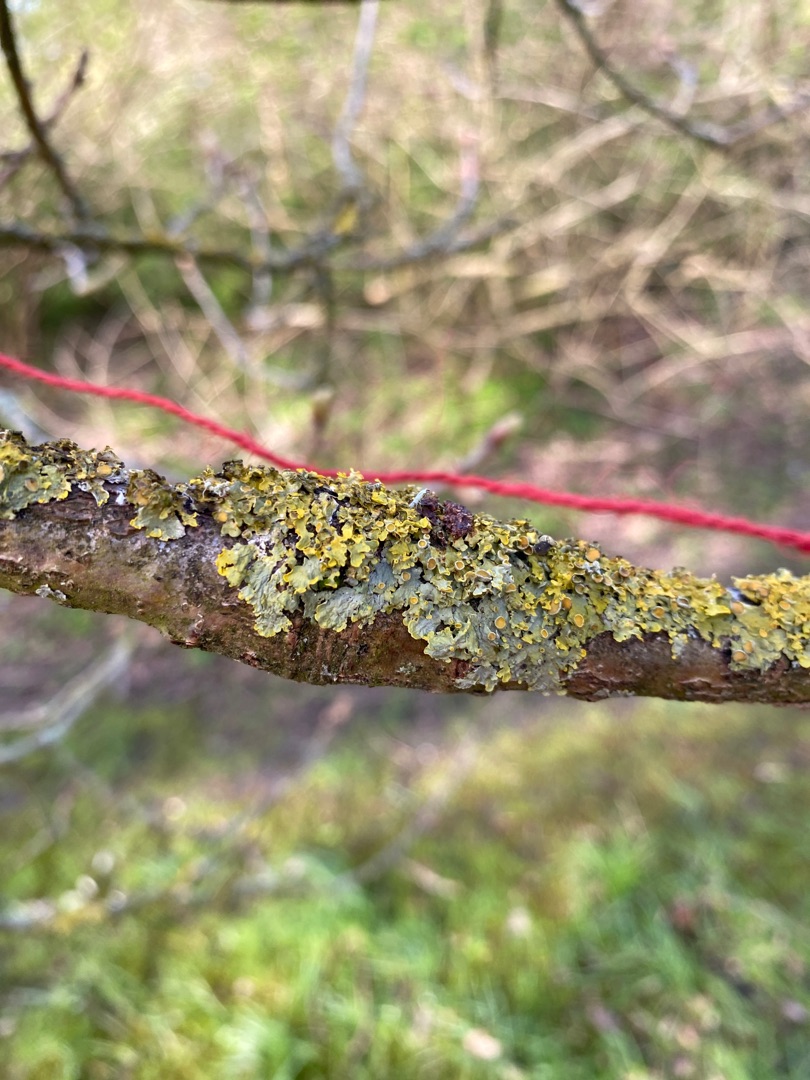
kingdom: Fungi
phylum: Ascomycota
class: Lecanoromycetes
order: Teloschistales
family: Teloschistaceae
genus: Xanthoria
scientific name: Xanthoria parietina
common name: Almindelig væggelav
